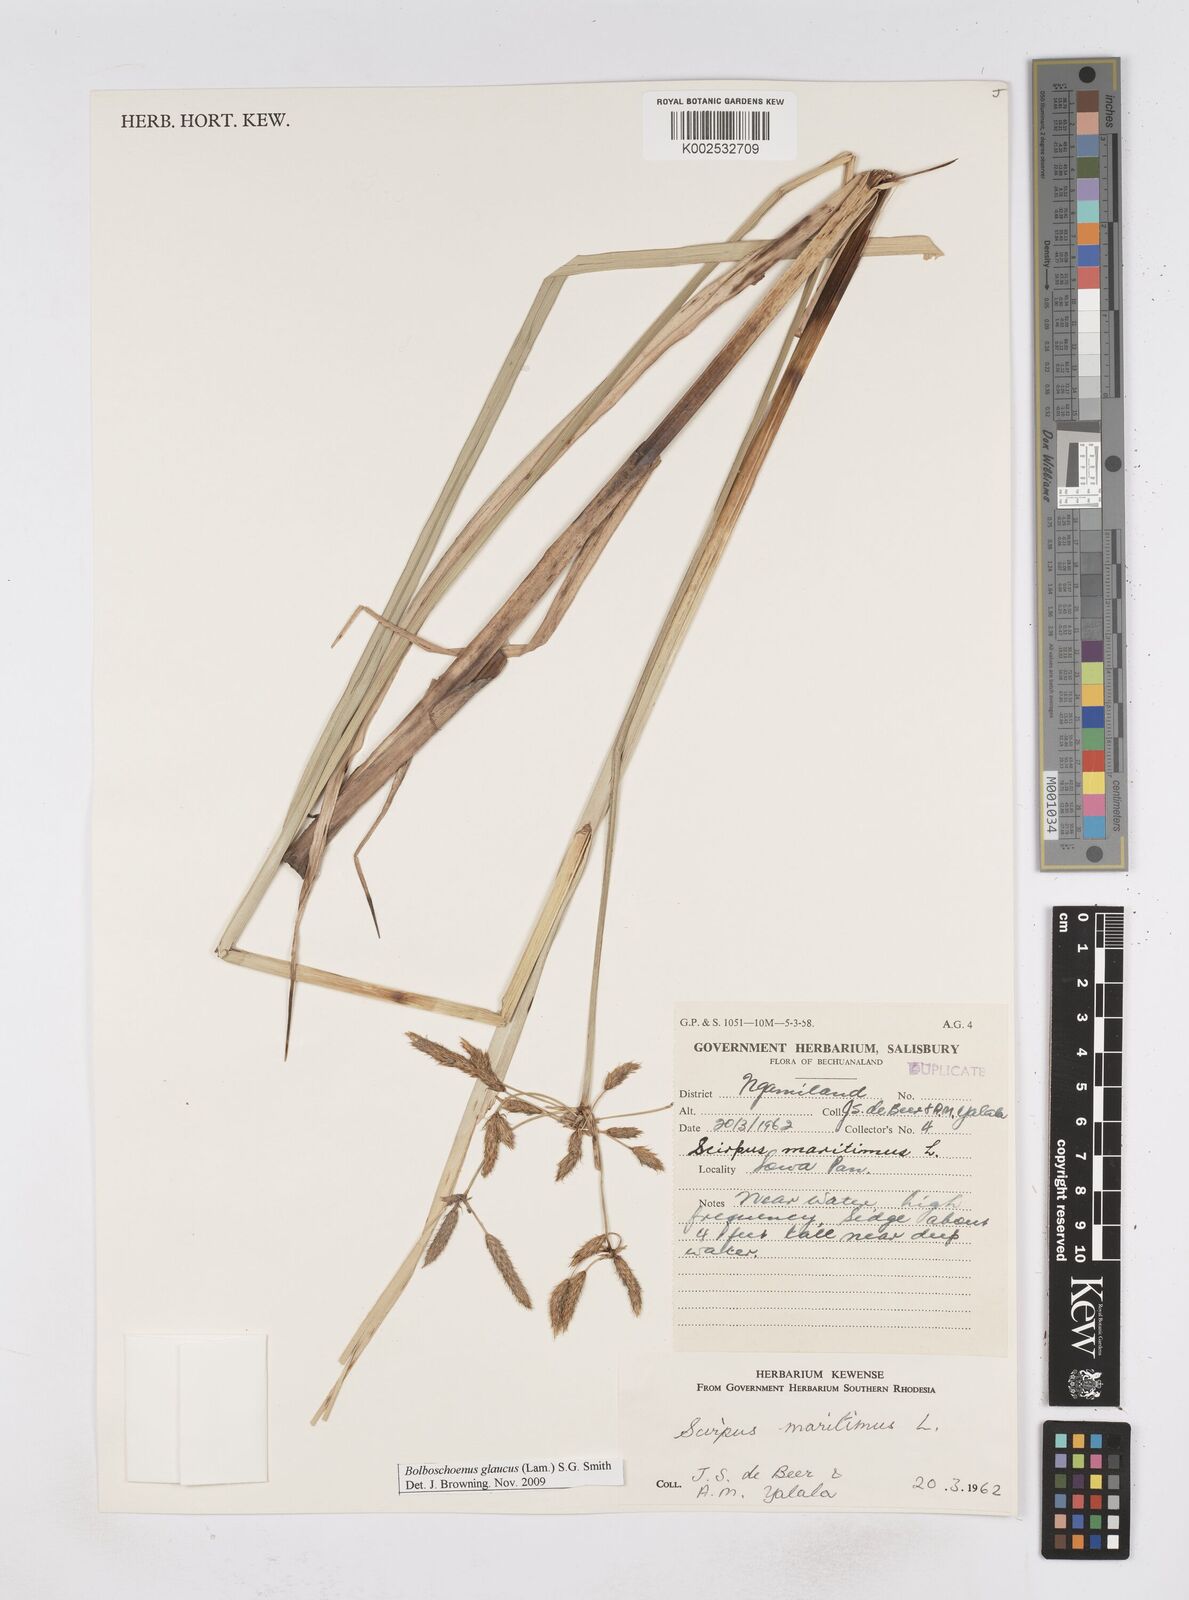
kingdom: Plantae
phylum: Tracheophyta
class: Liliopsida
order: Poales
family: Cyperaceae
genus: Bolboschoenus
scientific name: Bolboschoenus glaucus
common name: Tuberous bulrush
